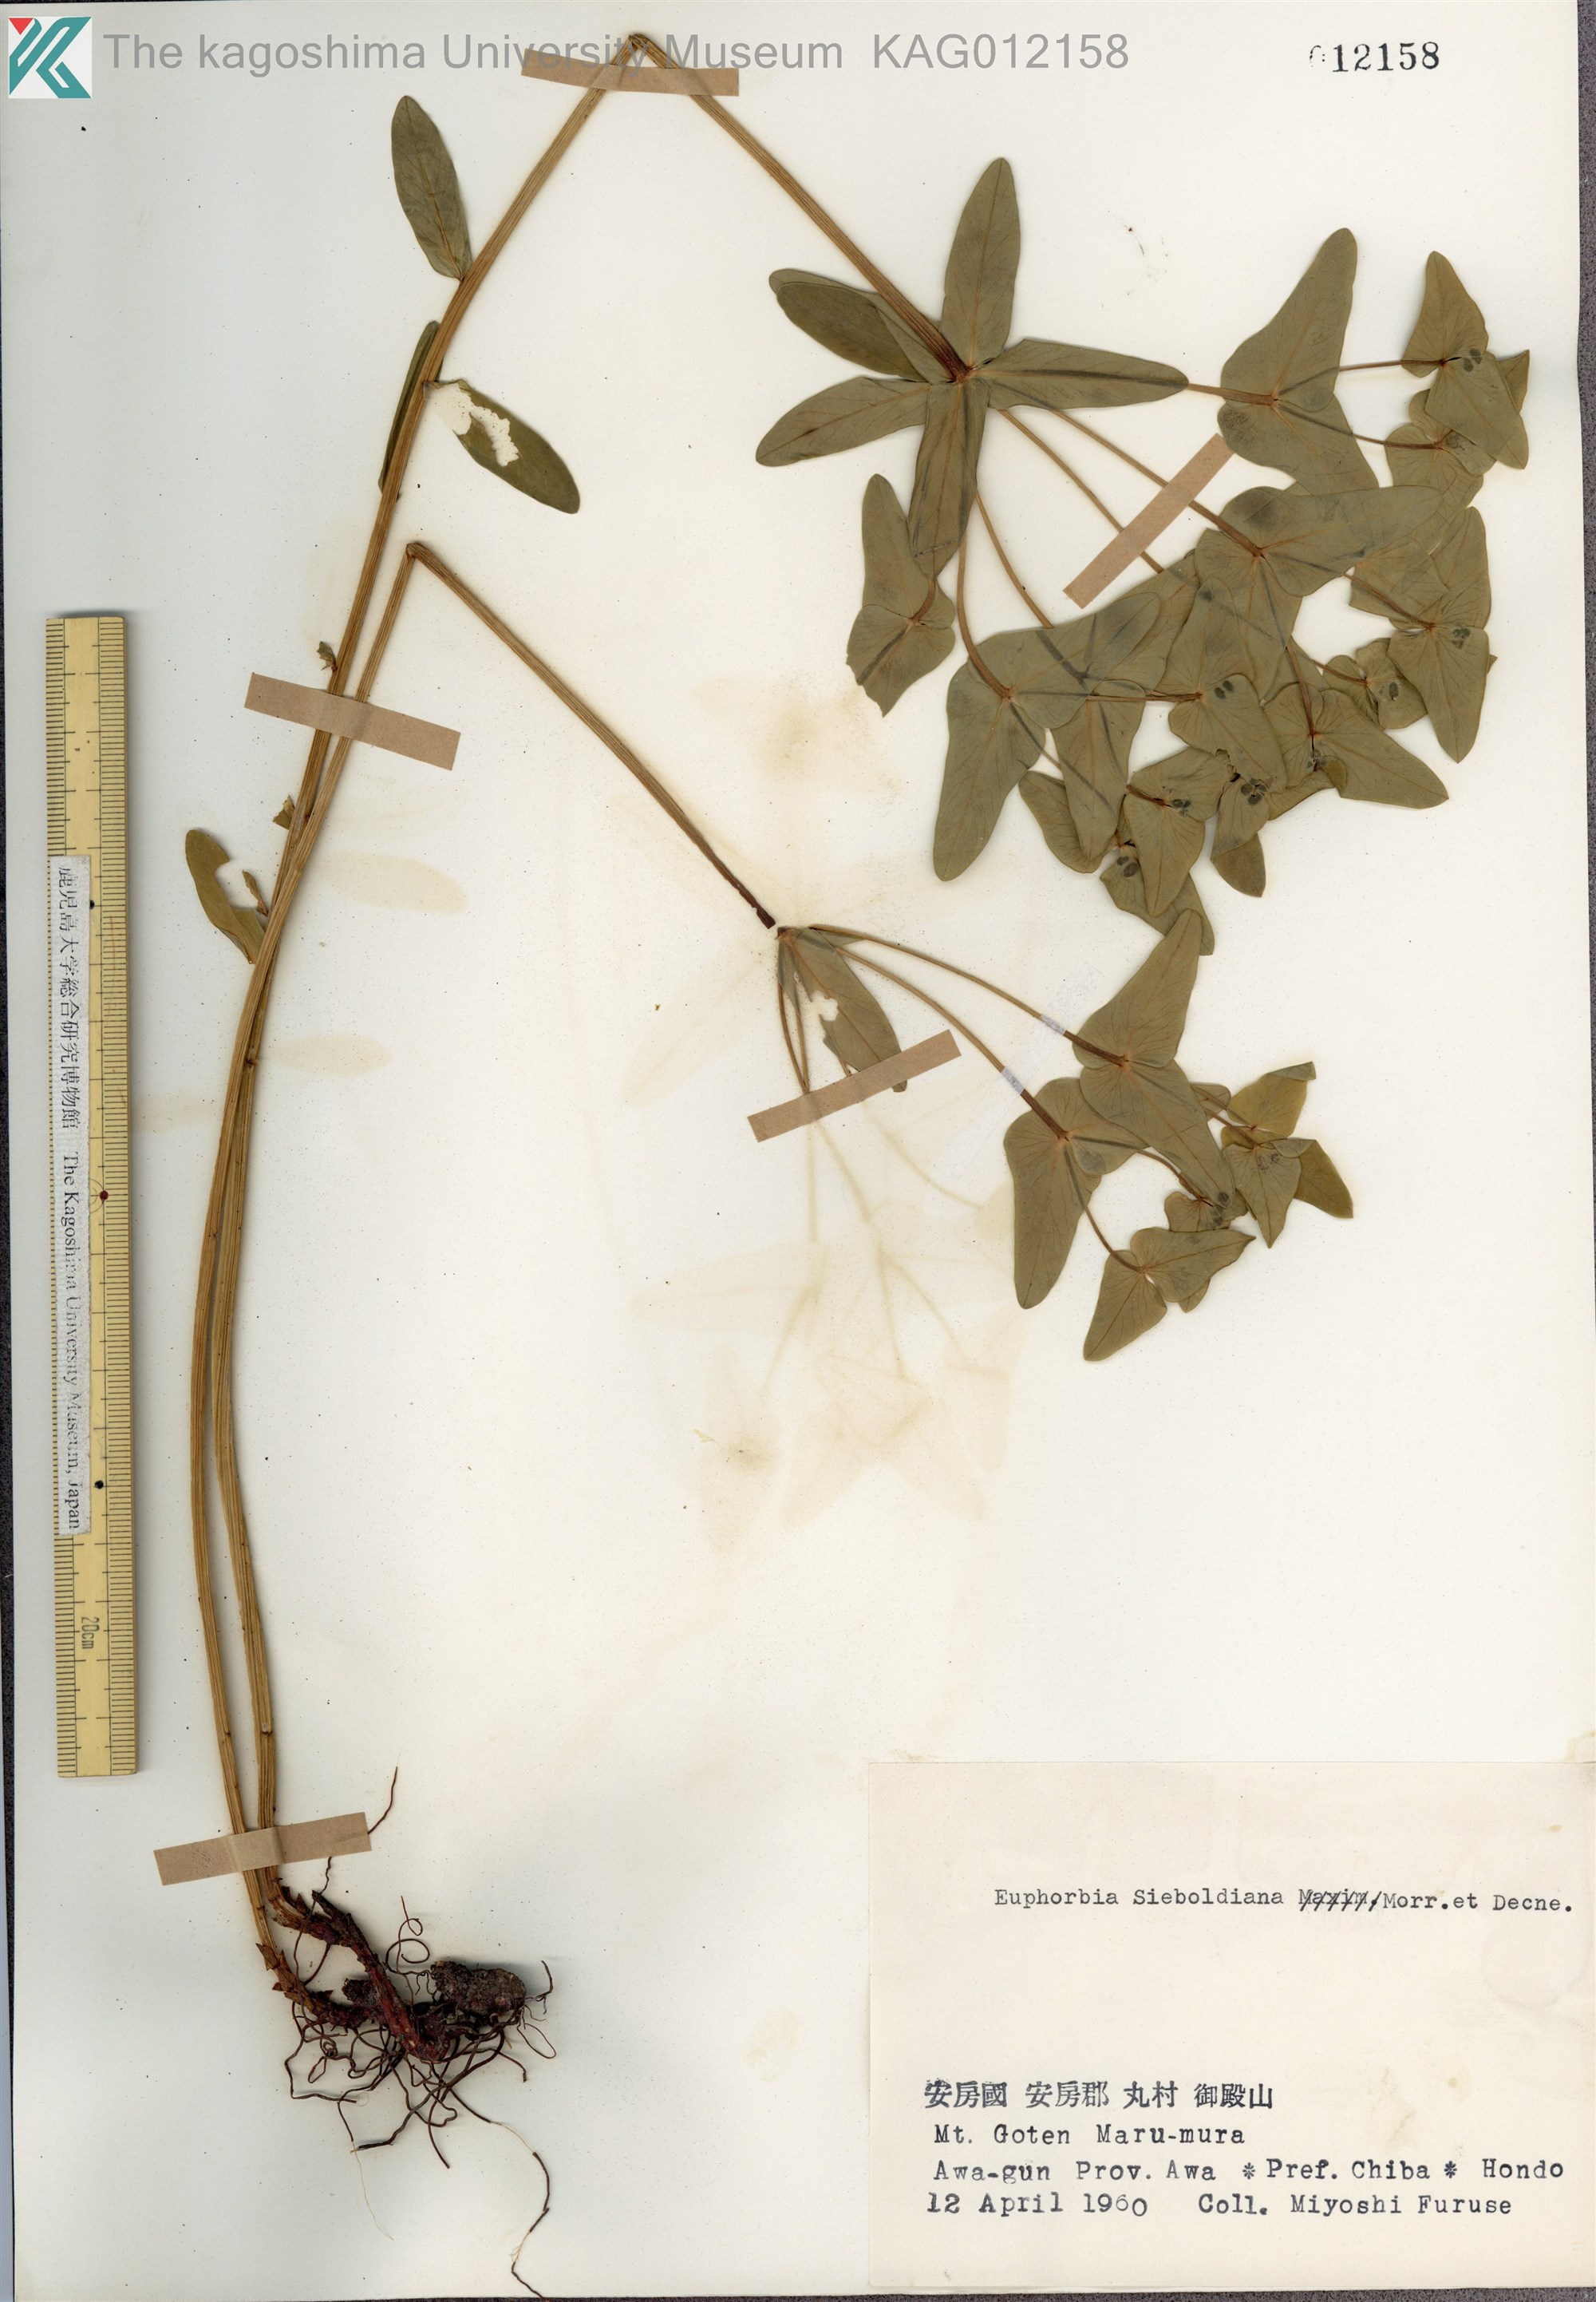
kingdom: Plantae
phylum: Tracheophyta
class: Magnoliopsida
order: Malpighiales
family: Euphorbiaceae
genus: Euphorbia
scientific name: Euphorbia sieboldiana
